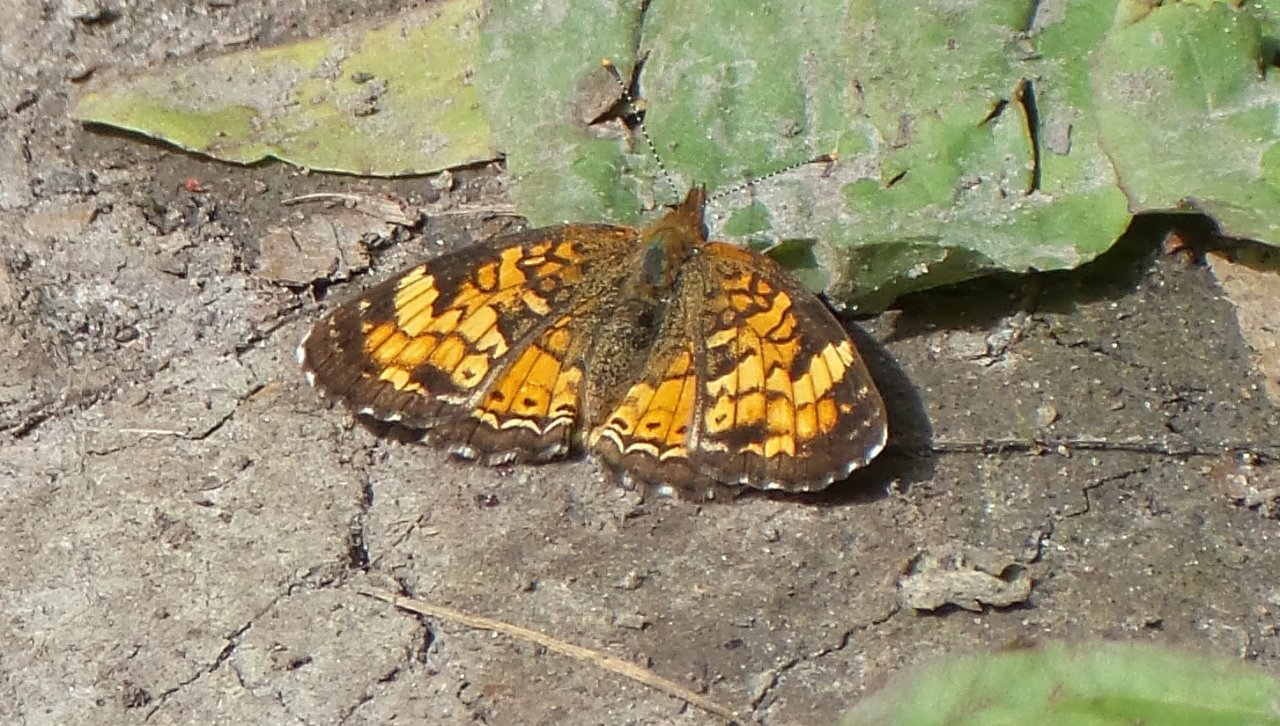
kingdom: Animalia
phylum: Arthropoda
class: Insecta
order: Lepidoptera
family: Nymphalidae
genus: Phyciodes
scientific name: Phyciodes tharos
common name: Northern Crescent
